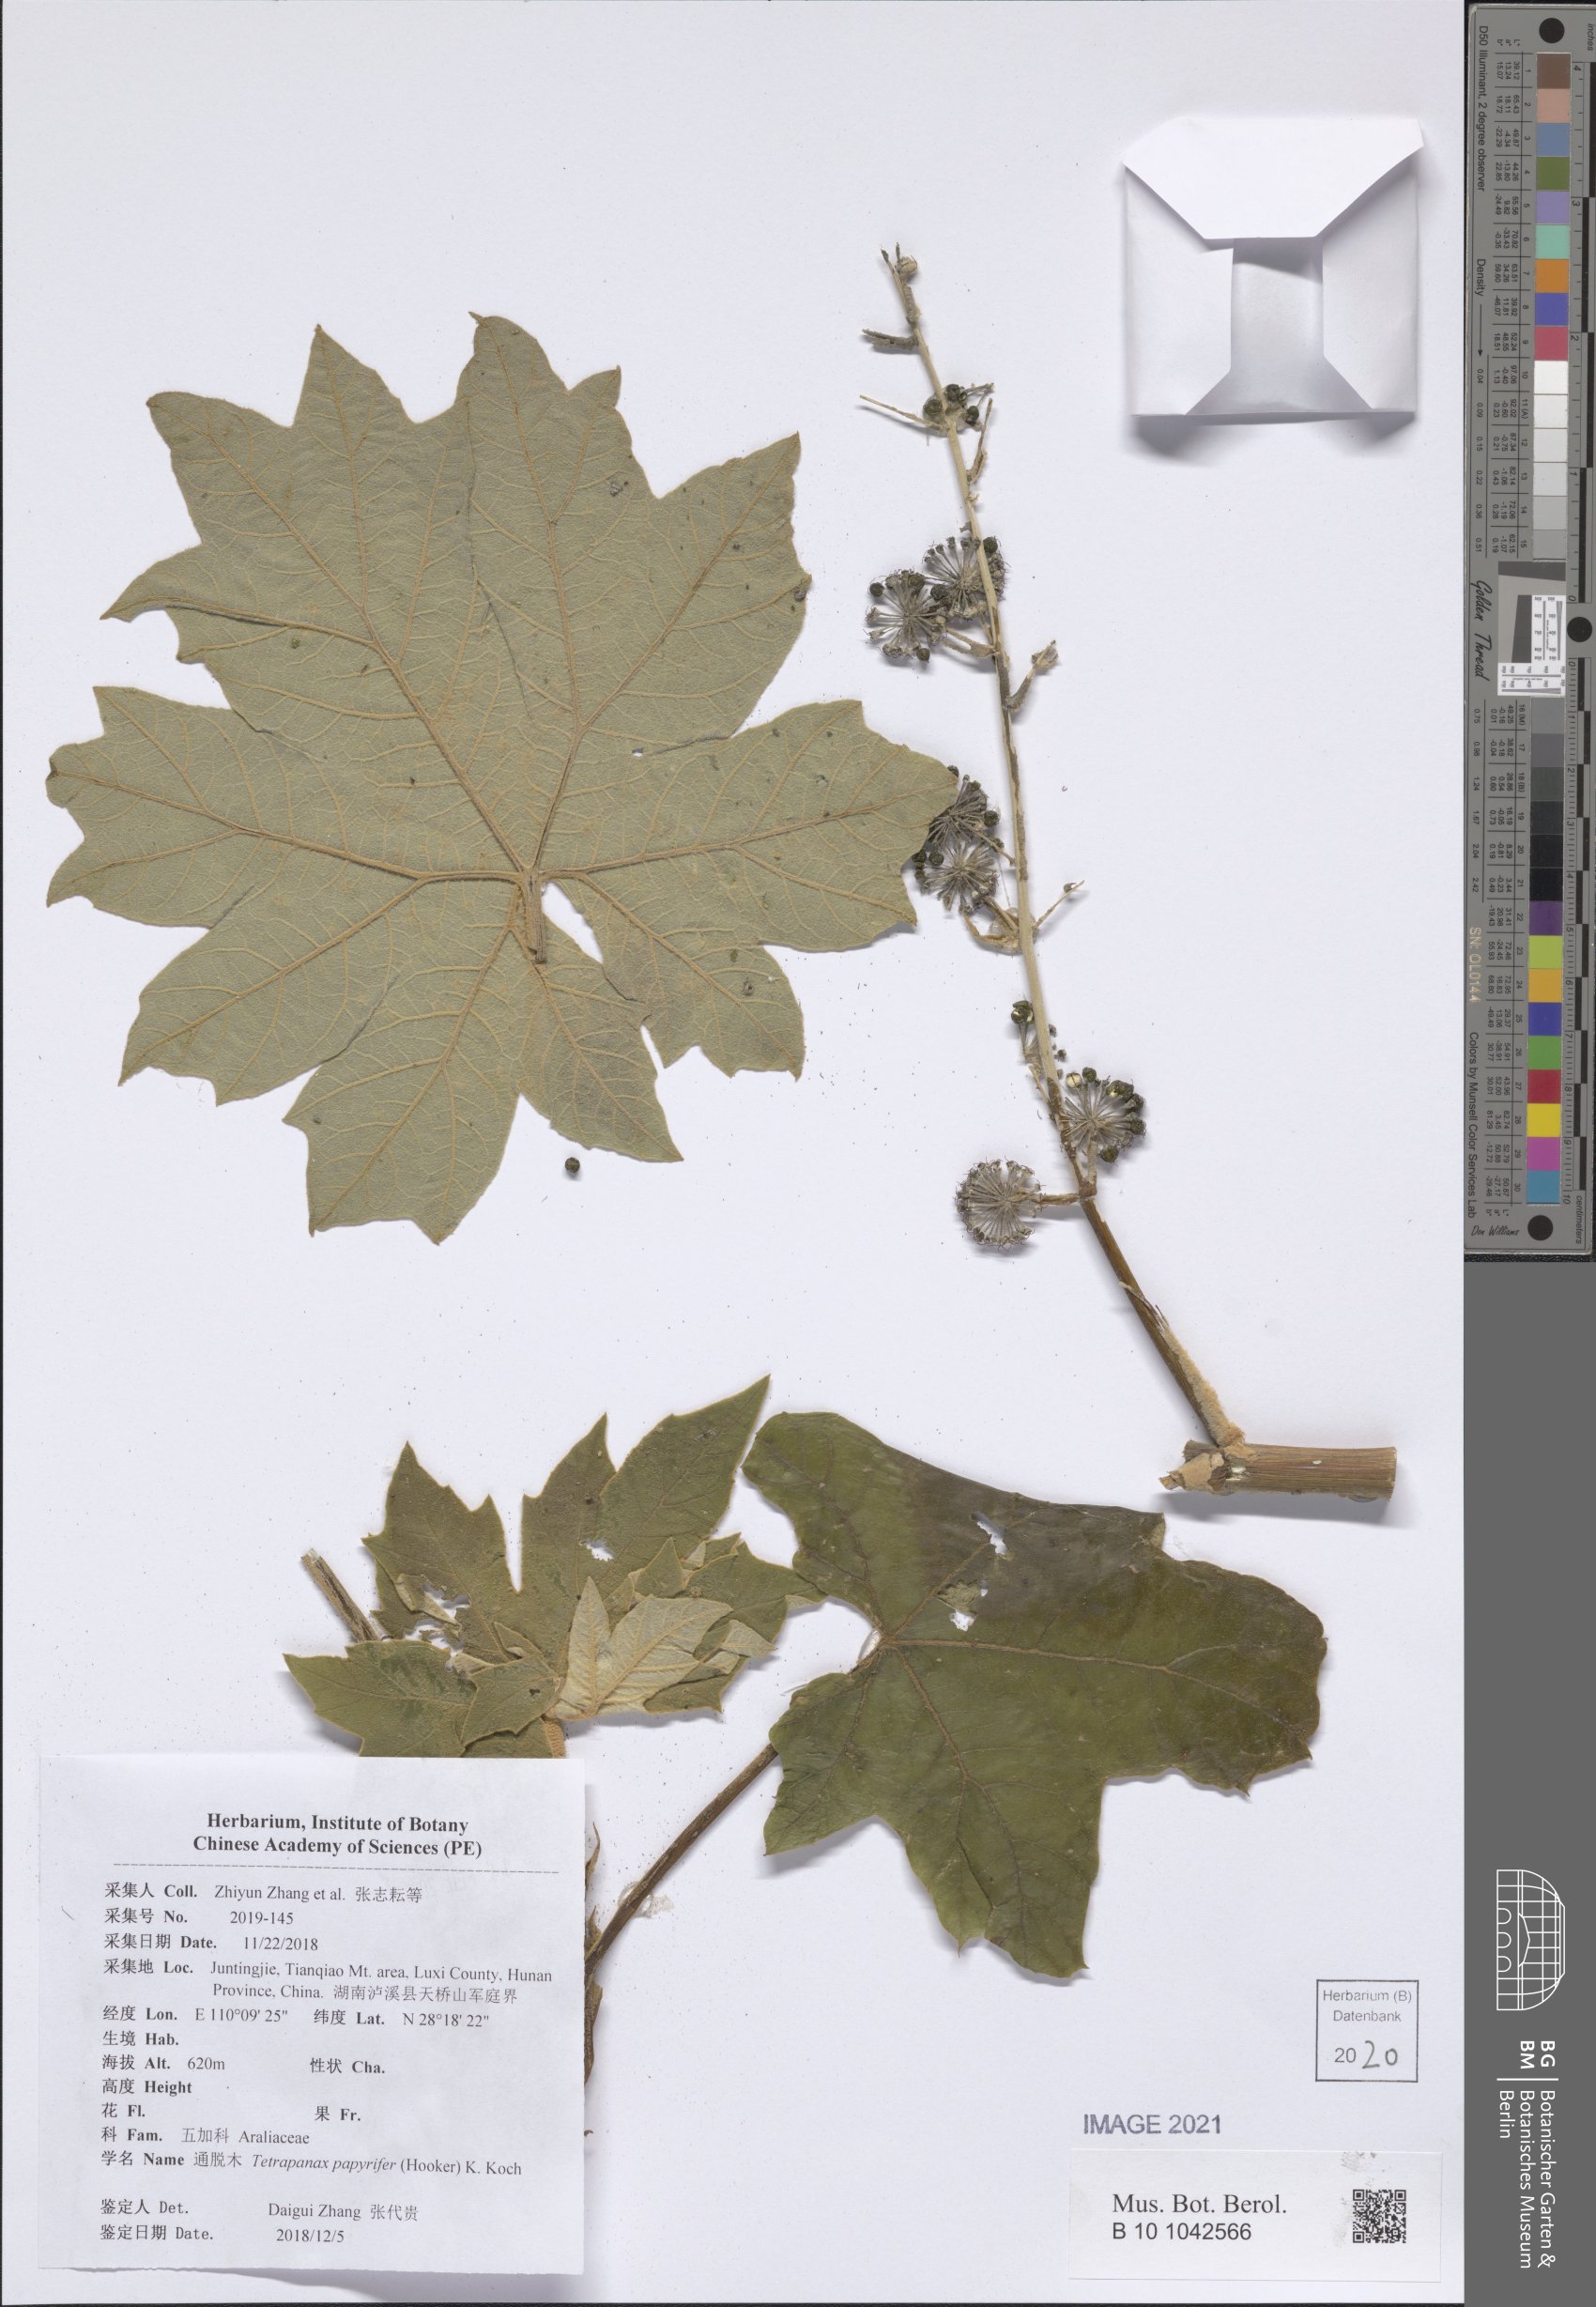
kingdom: Plantae
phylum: Tracheophyta
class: Magnoliopsida
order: Apiales
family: Araliaceae
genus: Tetrapanax
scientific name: Tetrapanax papyrifer
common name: Rice-paper plant
